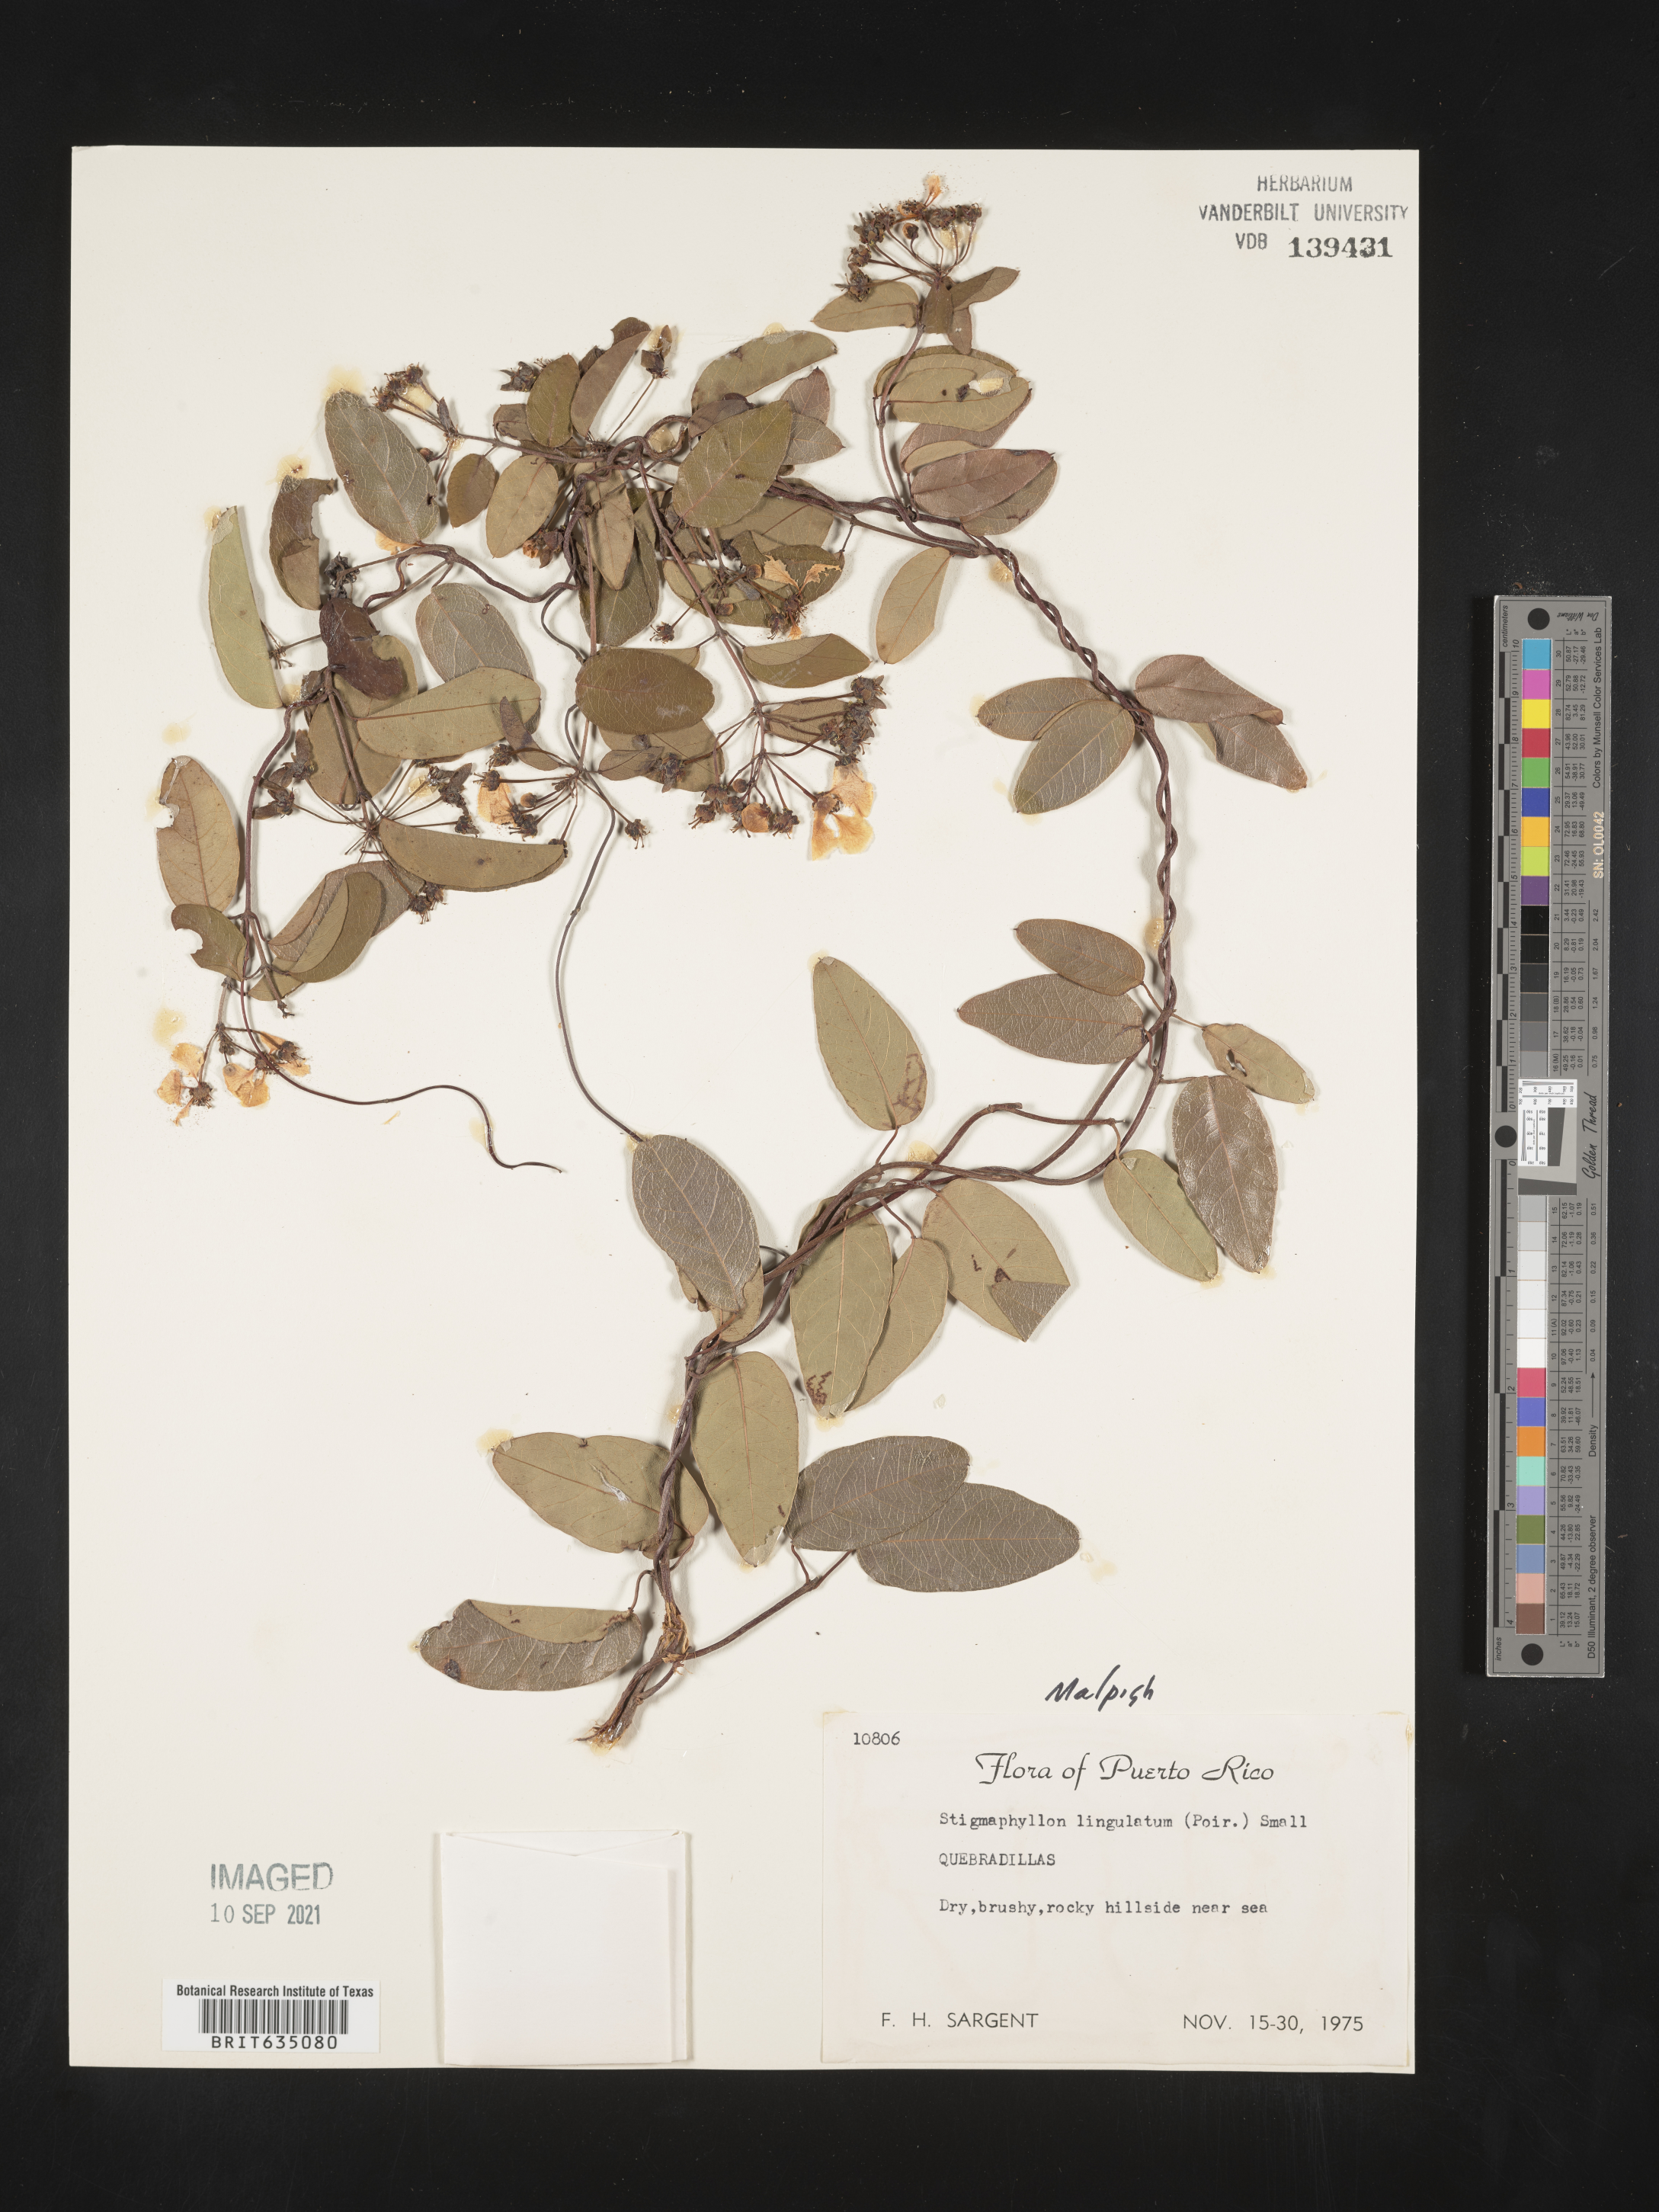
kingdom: Plantae
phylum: Tracheophyta
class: Magnoliopsida
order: Malpighiales
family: Malpighiaceae
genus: Stigmaphyllon
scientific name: Stigmaphyllon
